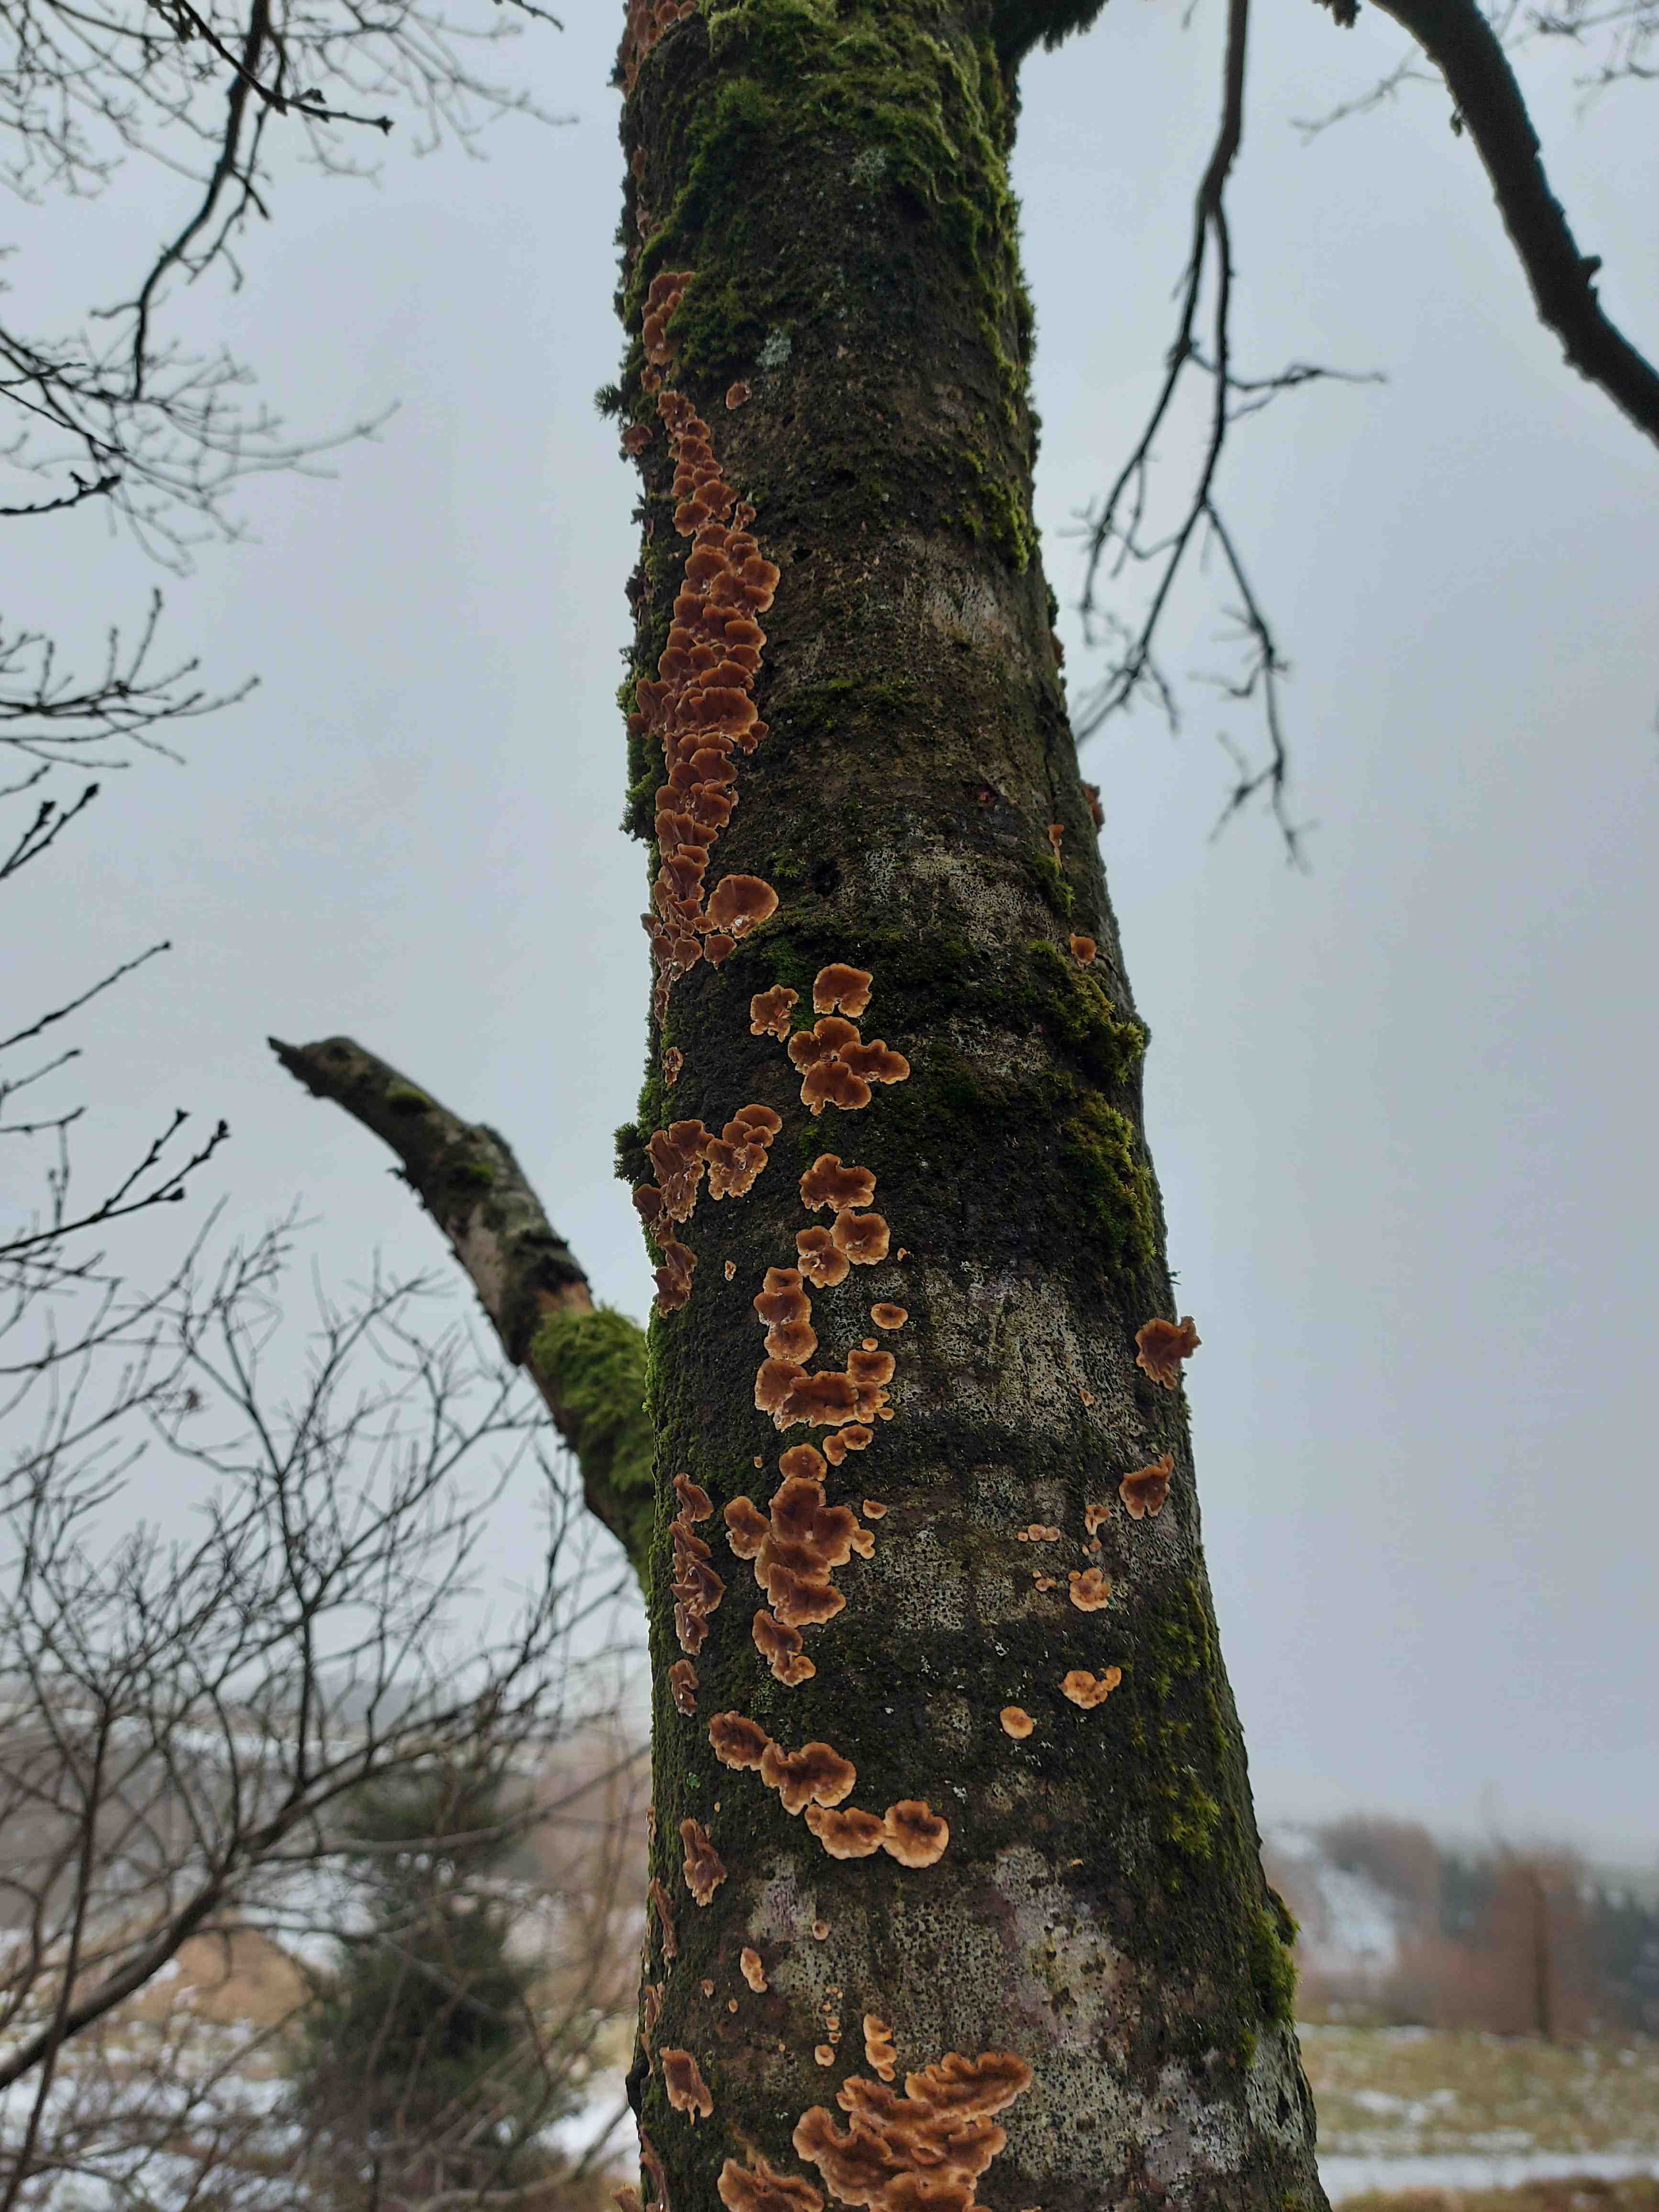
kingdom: Fungi
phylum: Basidiomycota
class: Agaricomycetes
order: Russulales
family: Stereaceae
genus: Stereum
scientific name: Stereum hirsutum
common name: håret lædersvamp
